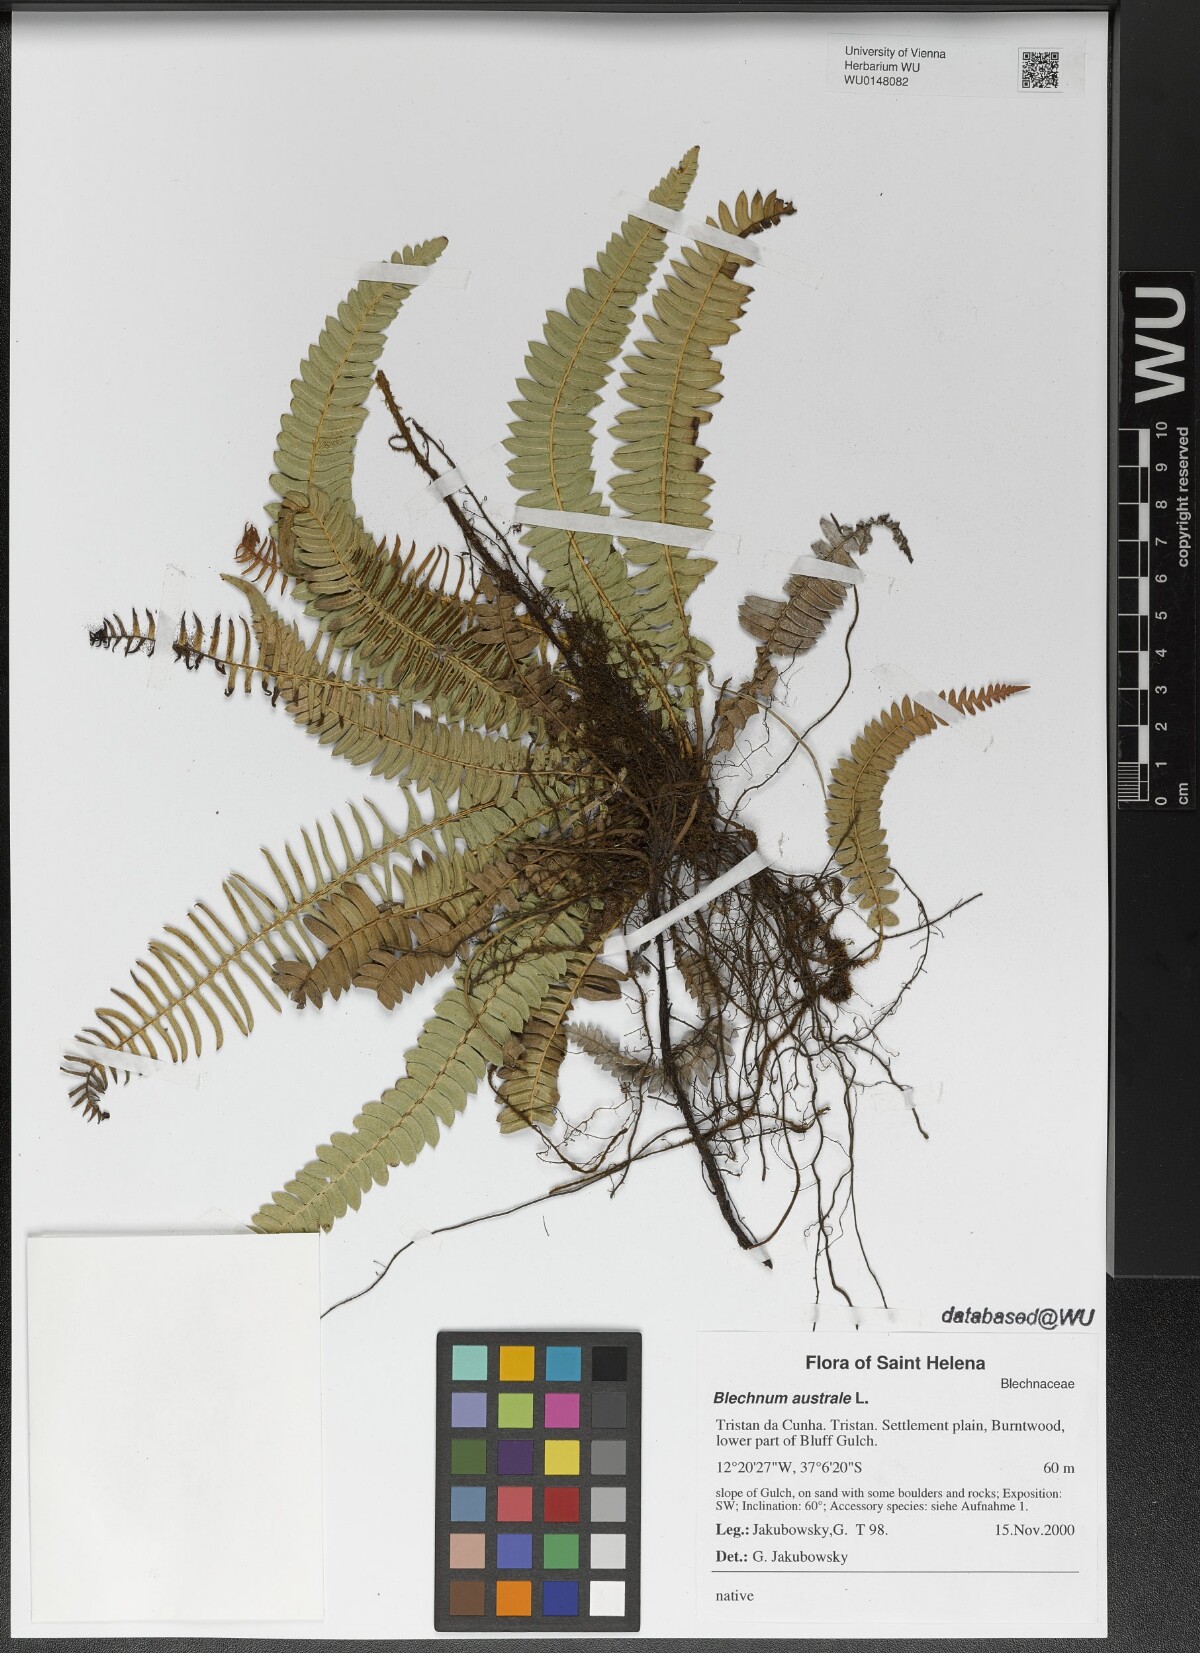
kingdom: Plantae
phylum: Tracheophyta
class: Polypodiopsida
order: Polypodiales
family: Blechnaceae
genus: Blechnum
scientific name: Blechnum australe
